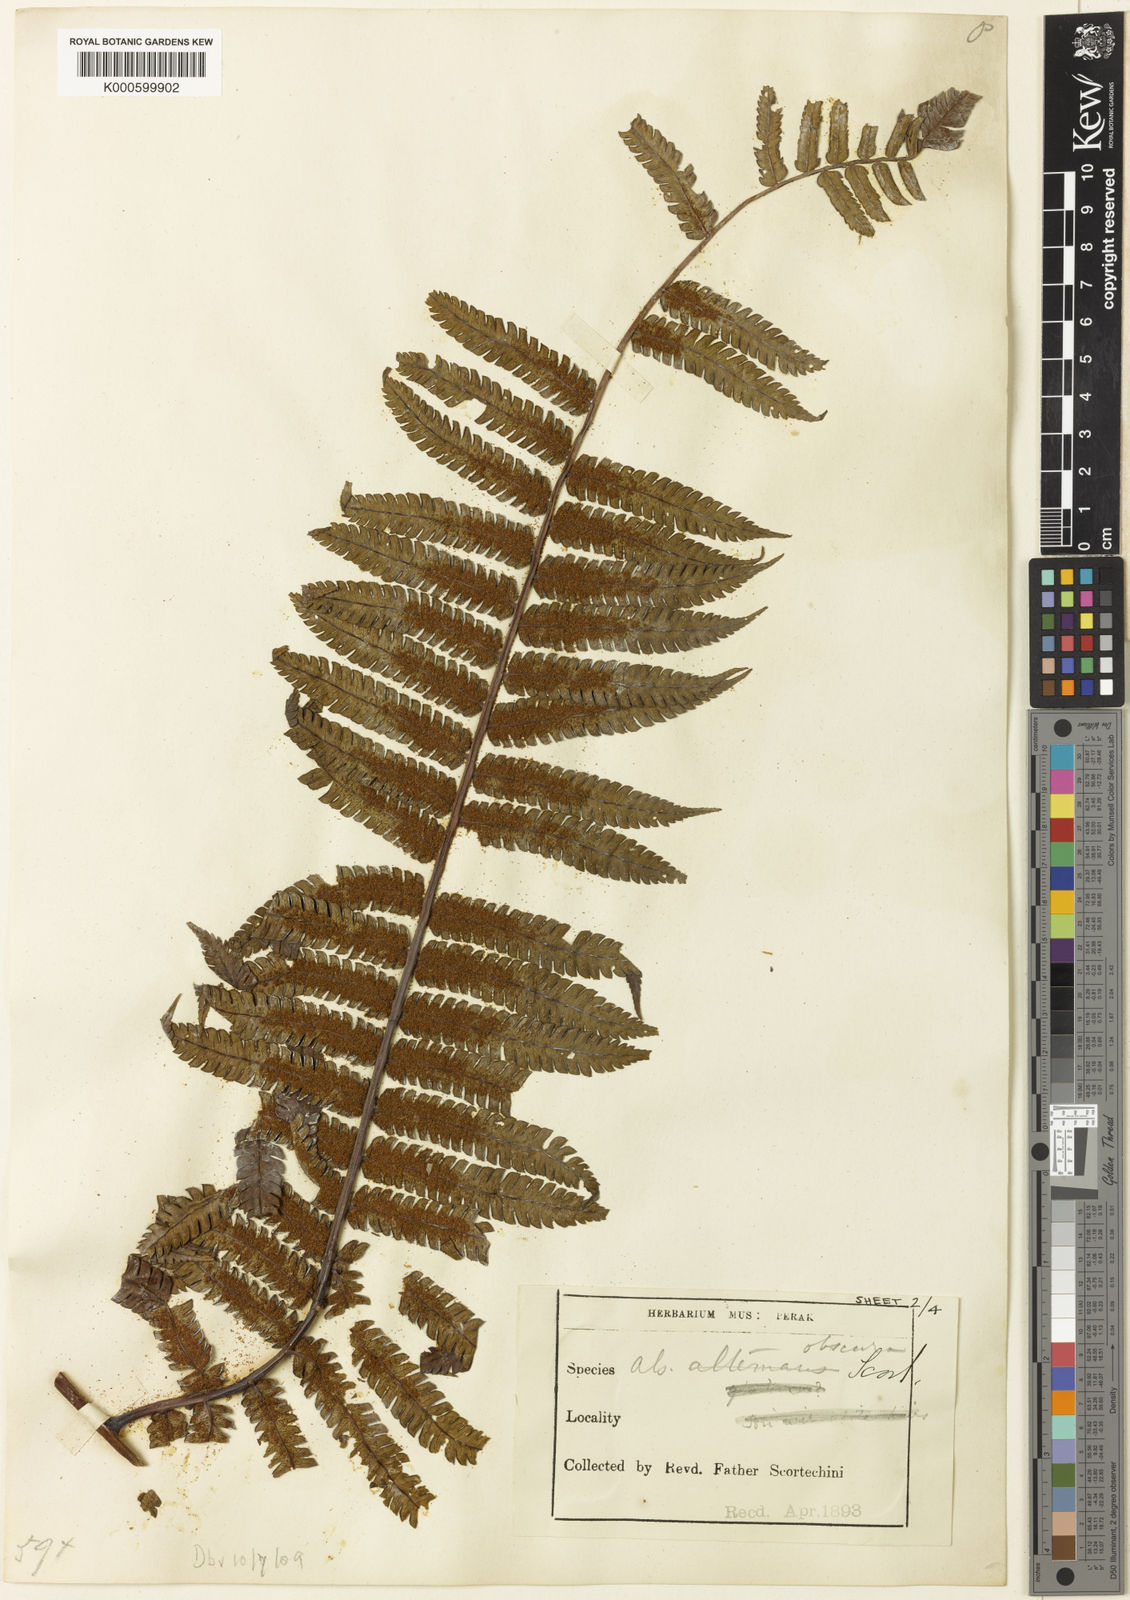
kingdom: Plantae
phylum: Tracheophyta
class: Polypodiopsida
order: Cyatheales
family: Cyatheaceae
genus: Sphaeropteris
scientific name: Sphaeropteris obscura
